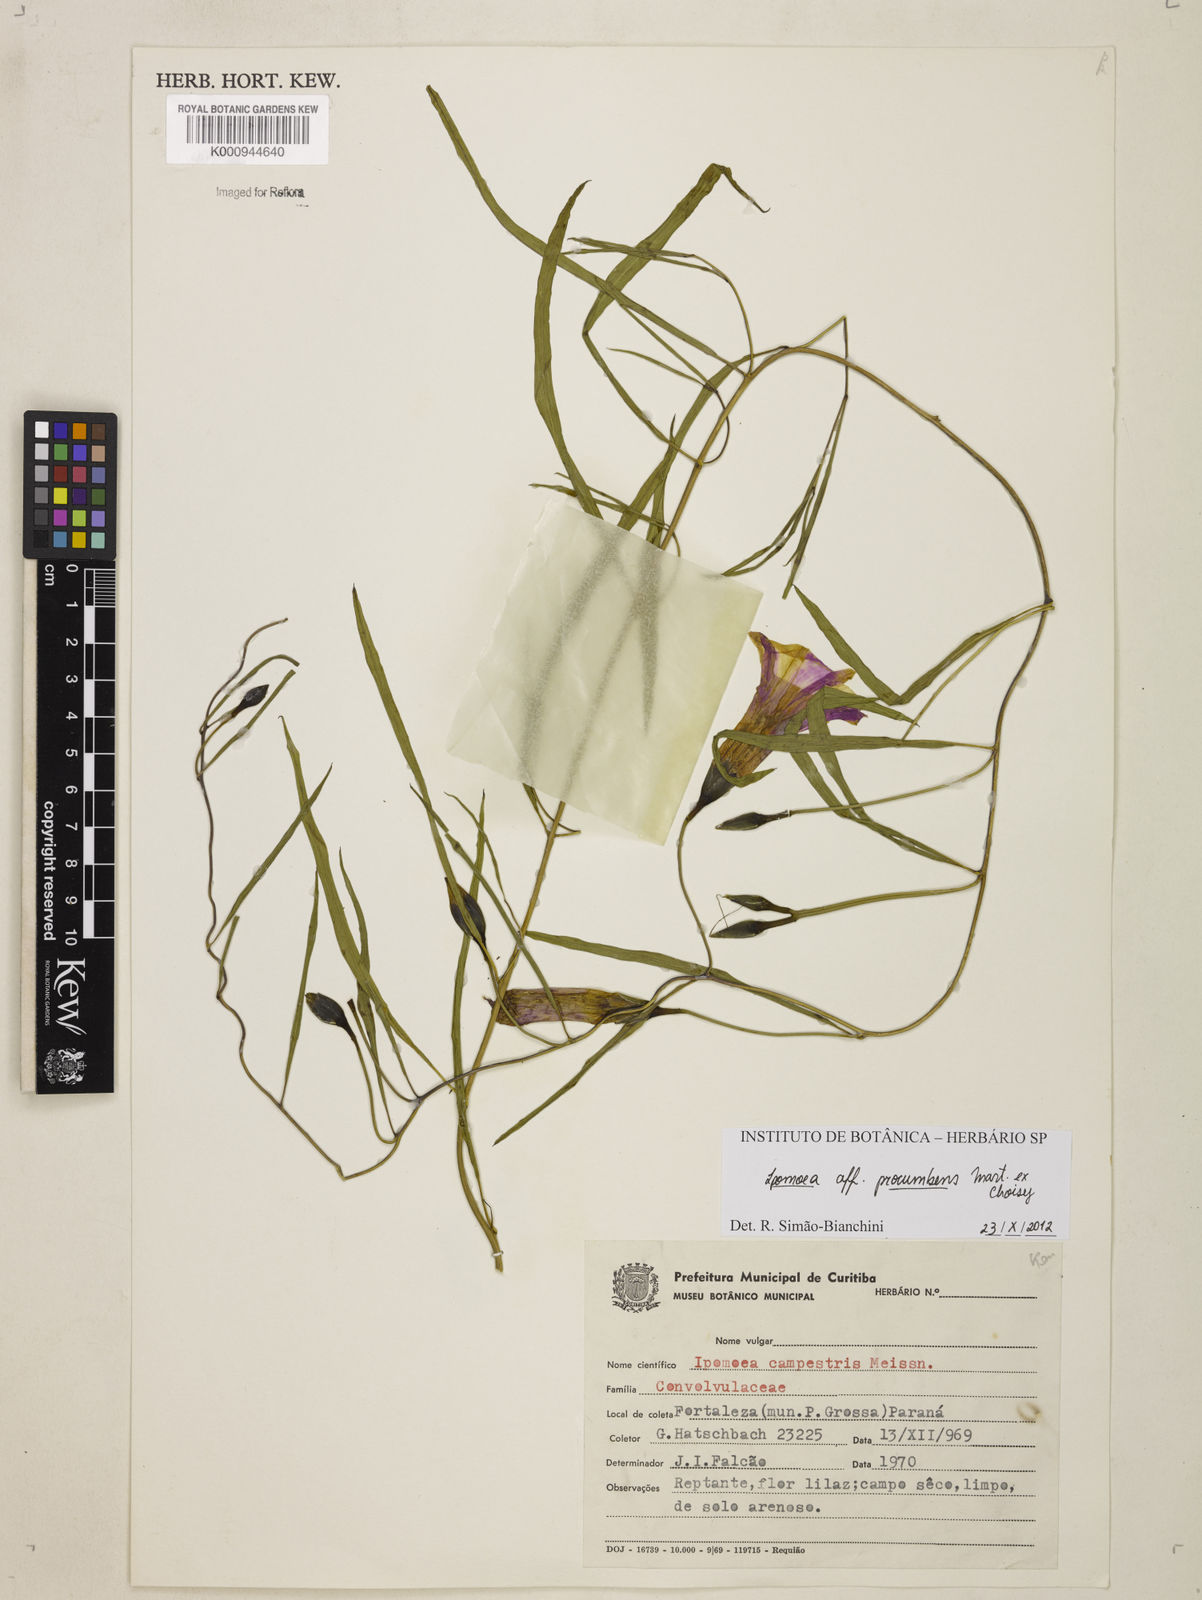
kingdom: Plantae
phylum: Tracheophyta
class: Magnoliopsida
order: Solanales
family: Convolvulaceae
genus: Ipomoea
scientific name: Ipomoea procumbens
